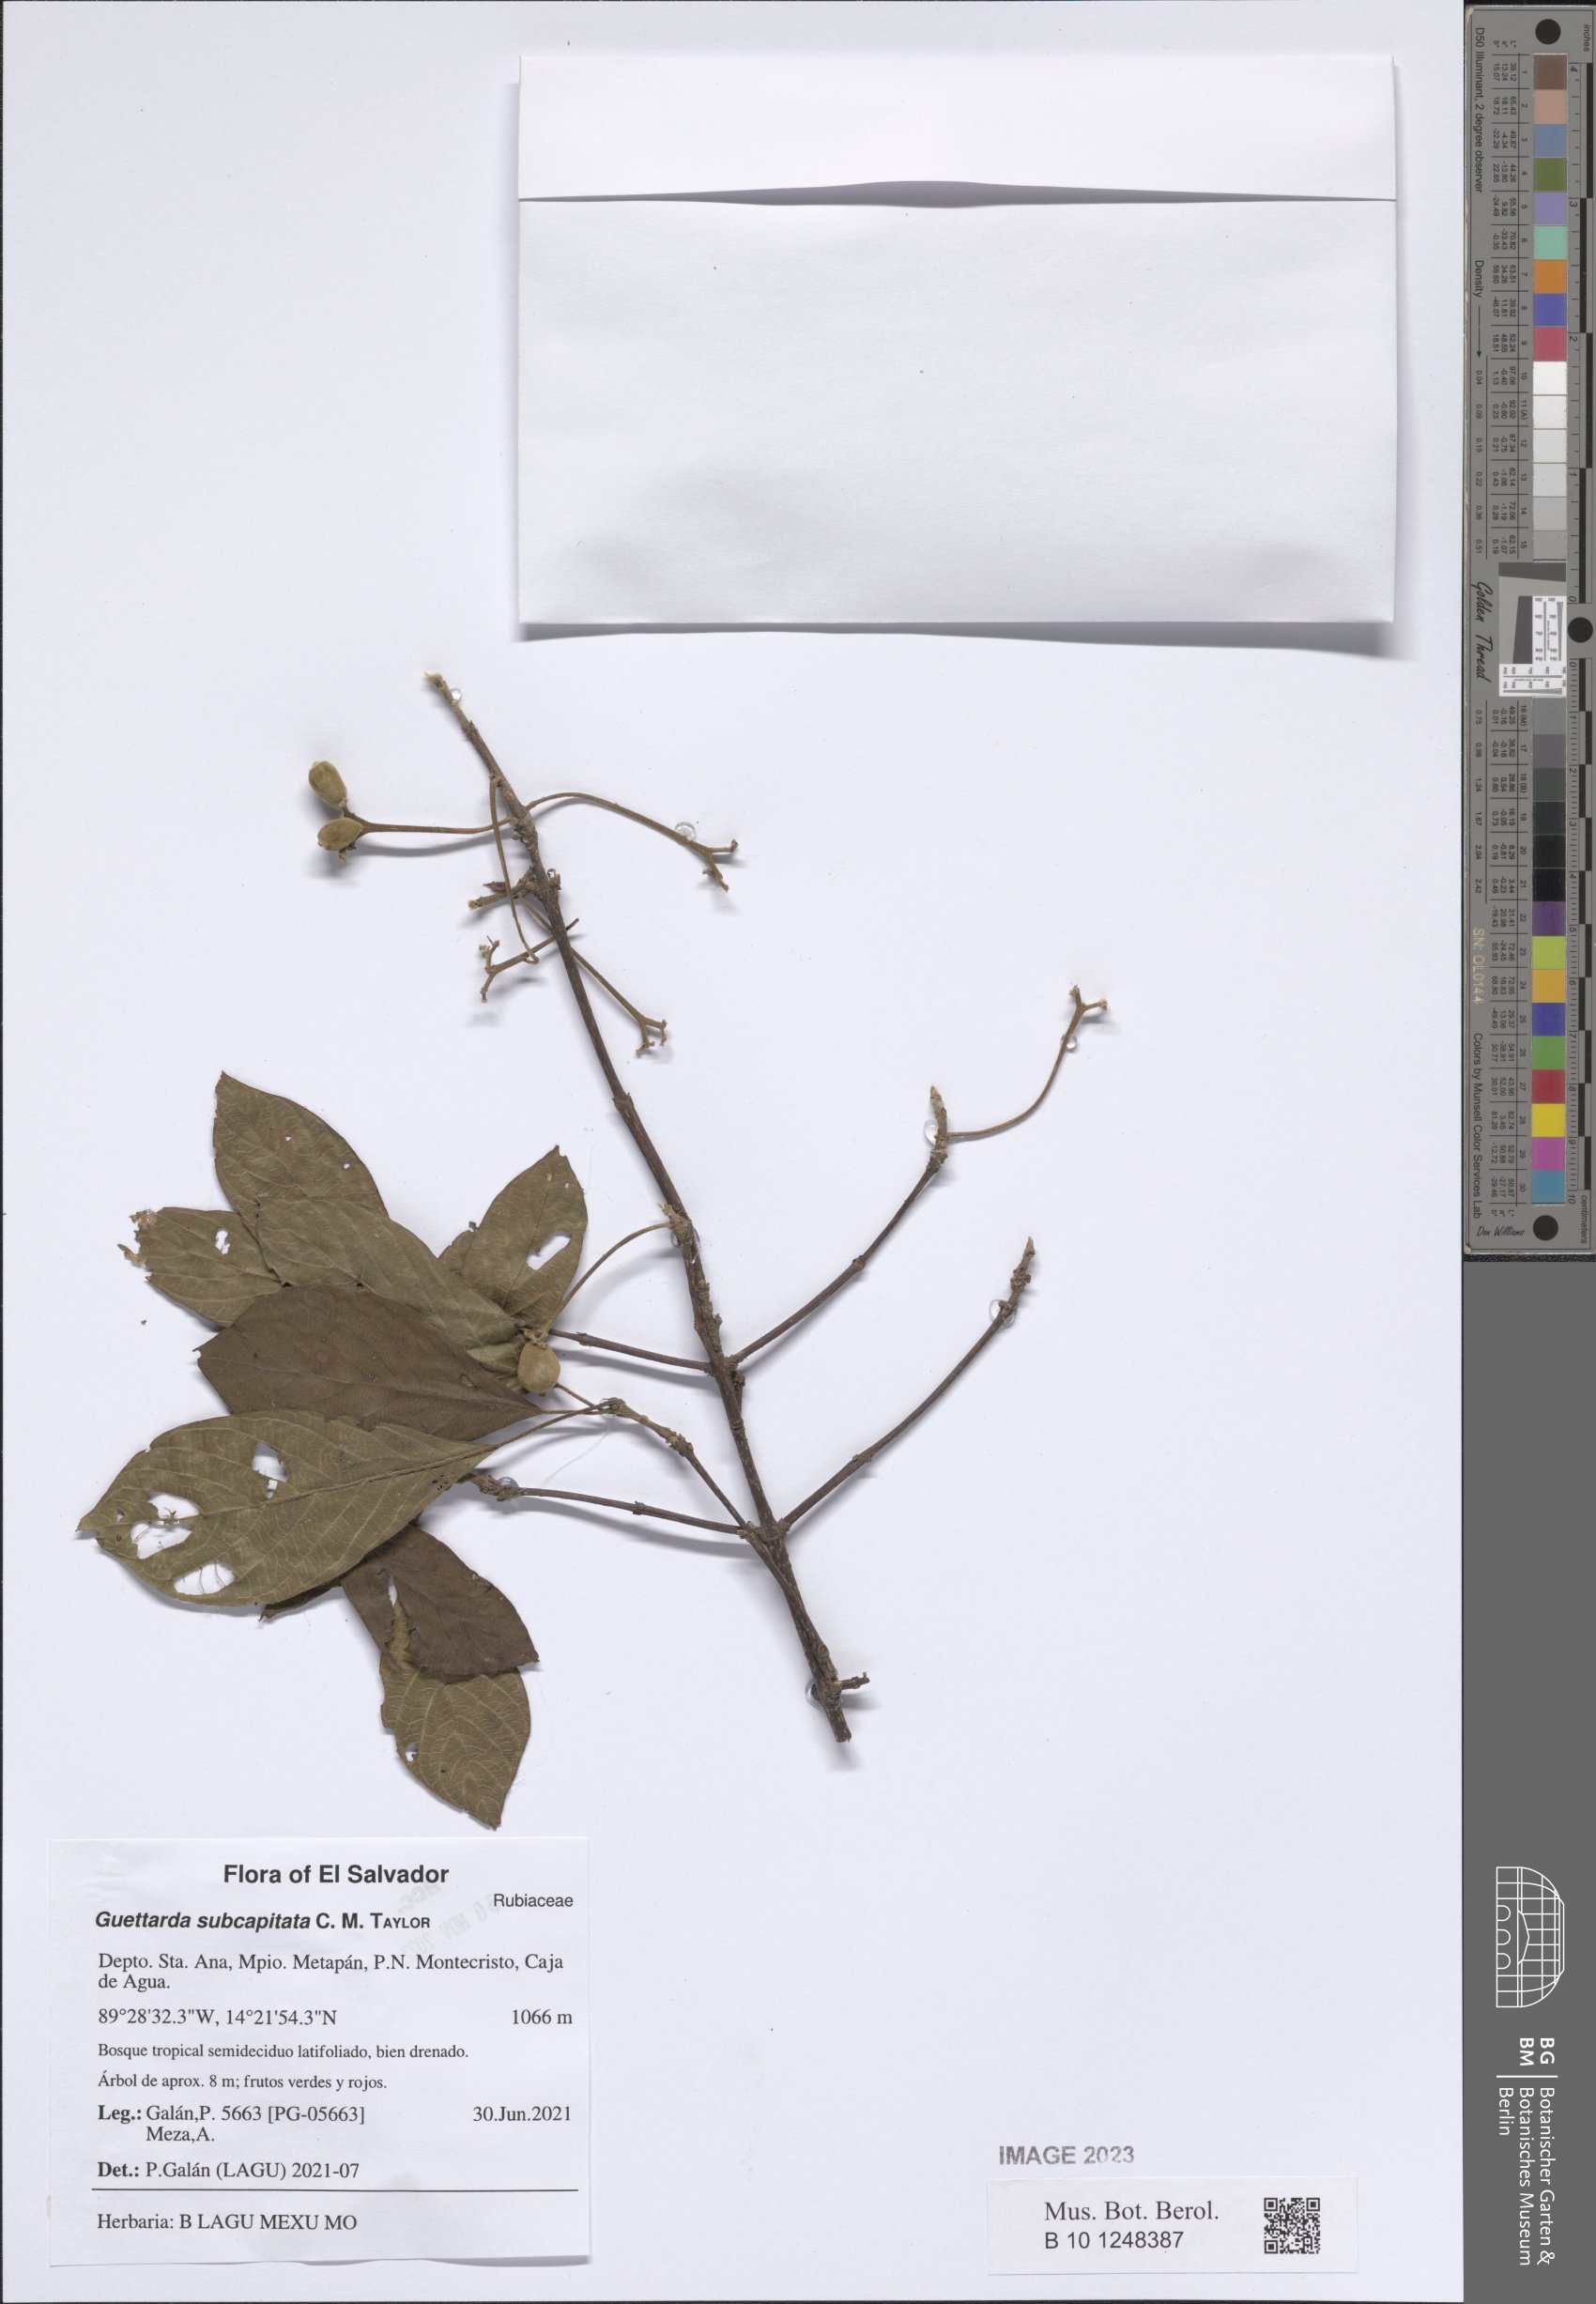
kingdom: Plantae
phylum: Tracheophyta
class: Magnoliopsida
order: Gentianales
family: Rubiaceae
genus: Guettarda
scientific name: Guettarda subcapitata
